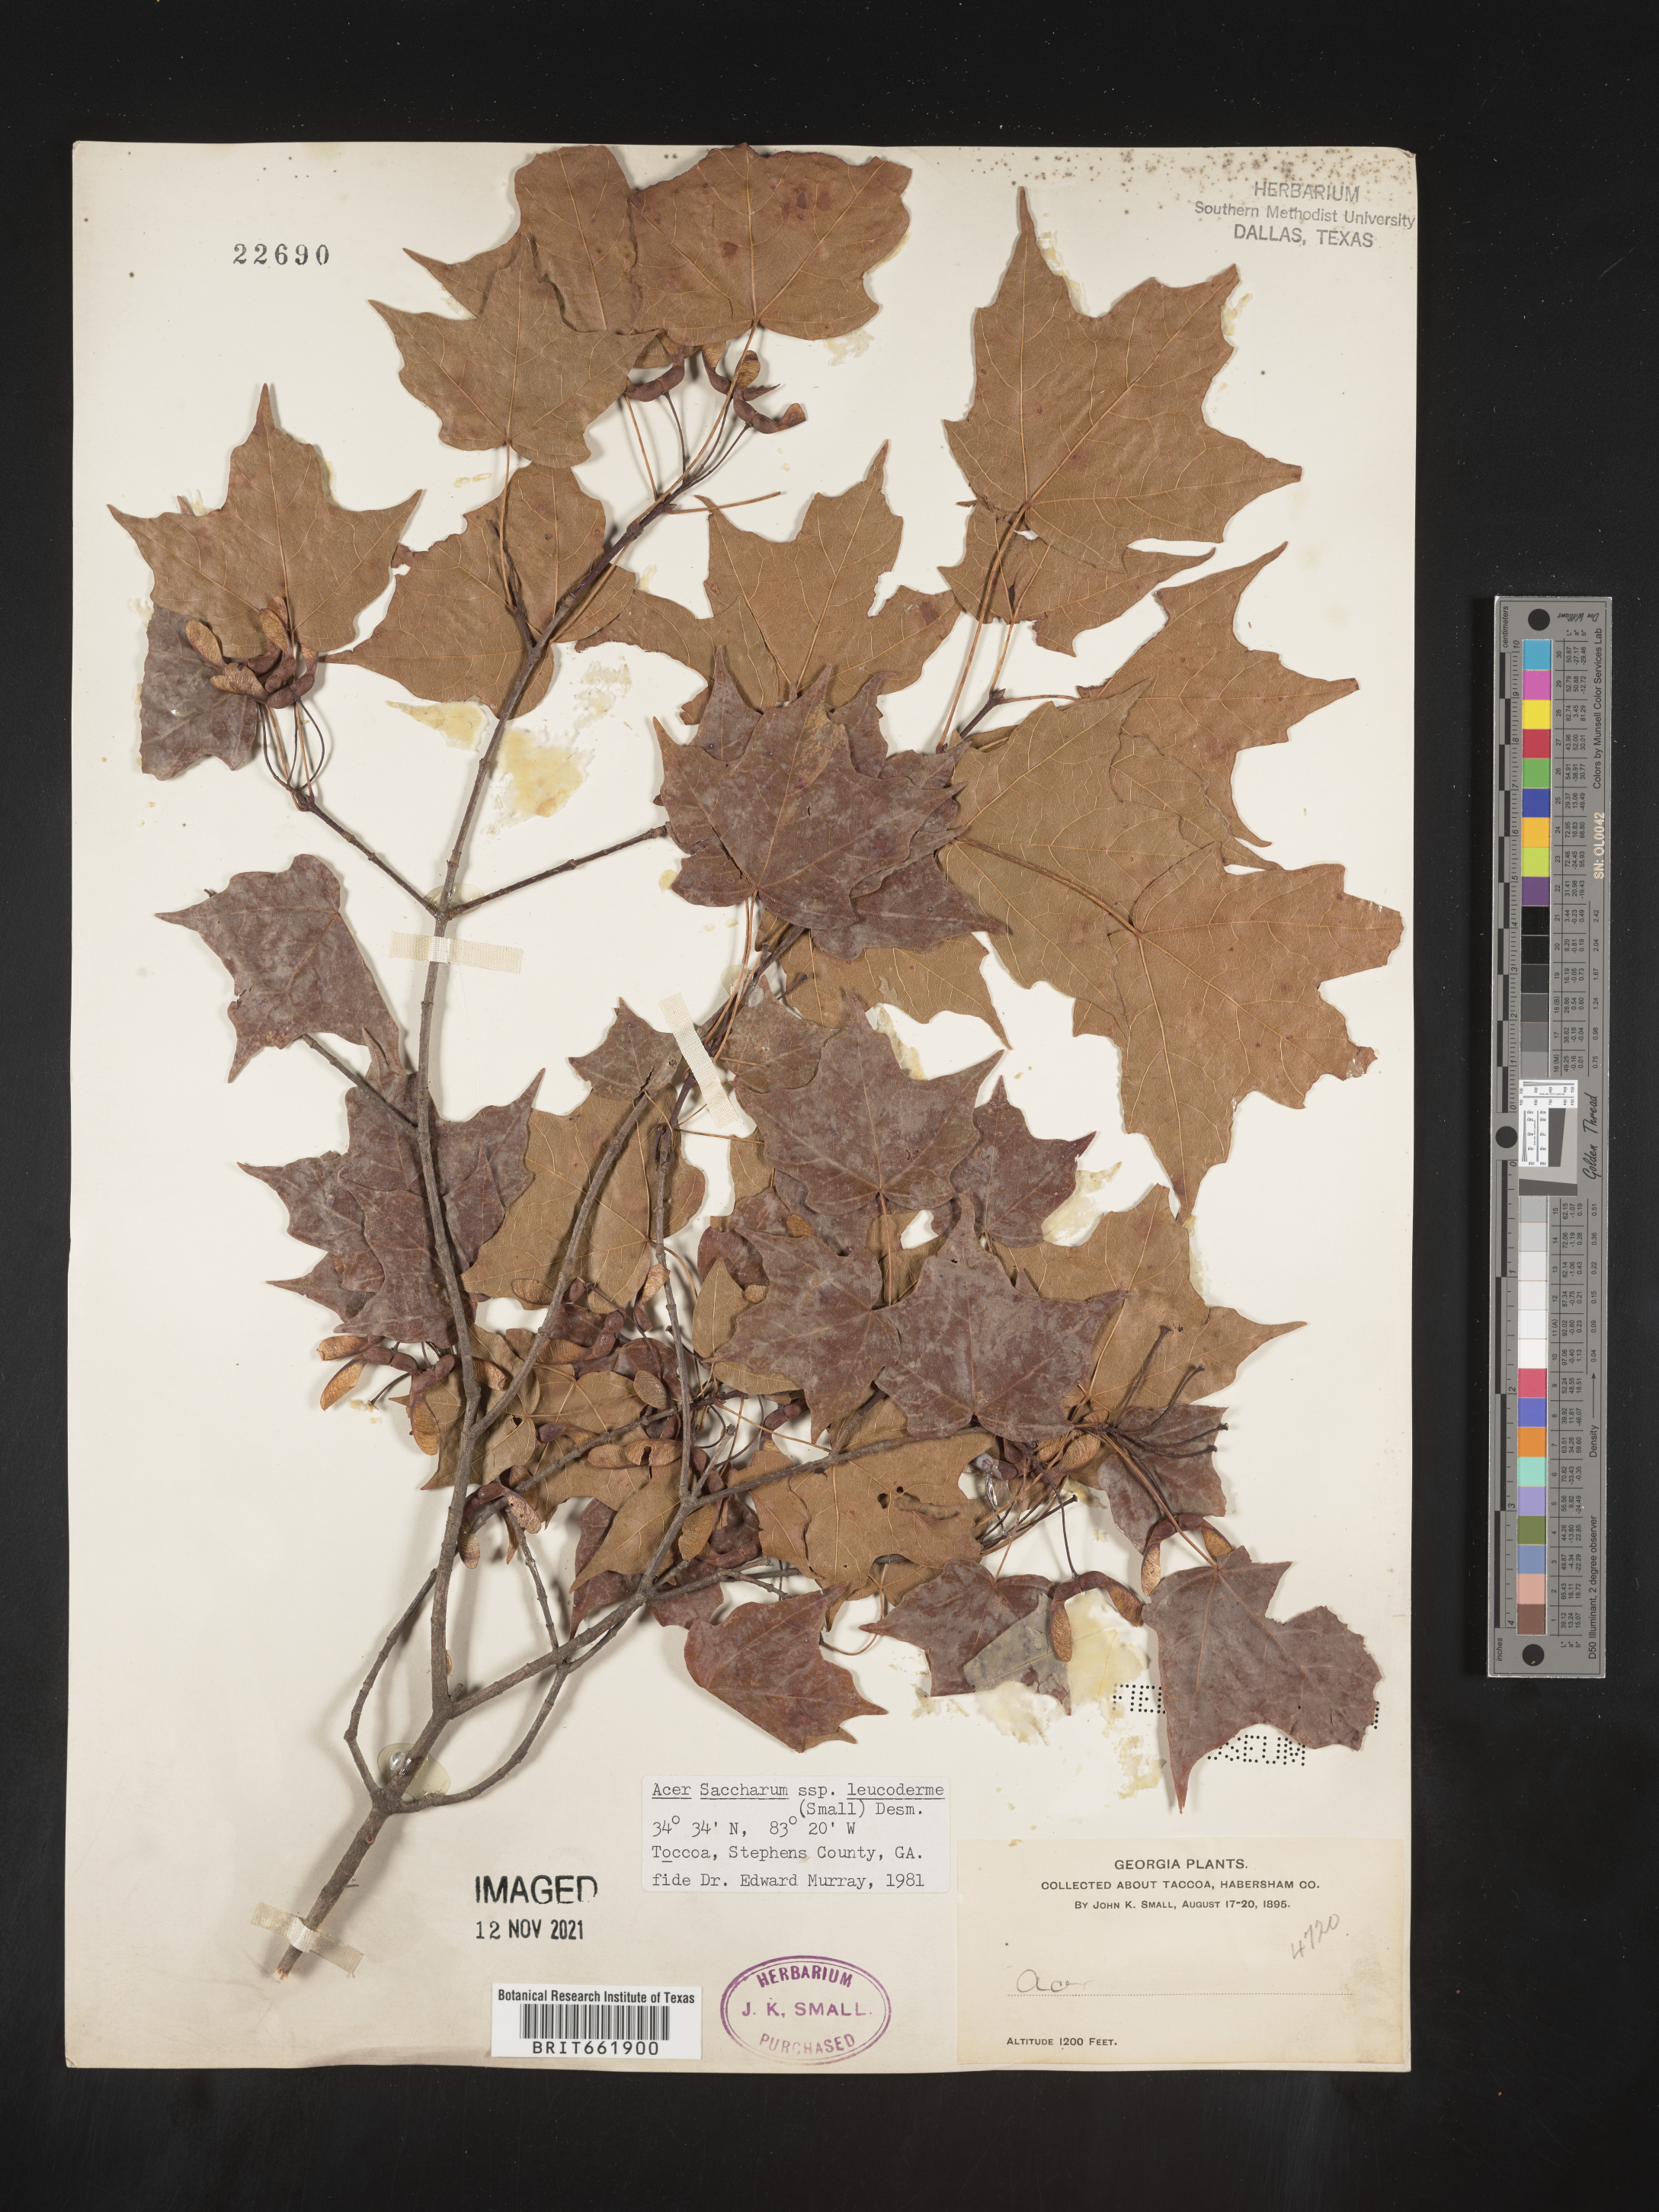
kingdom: Plantae
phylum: Tracheophyta
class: Magnoliopsida
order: Sapindales
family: Sapindaceae
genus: Acer
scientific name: Acer leucoderme
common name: Chalk maple
